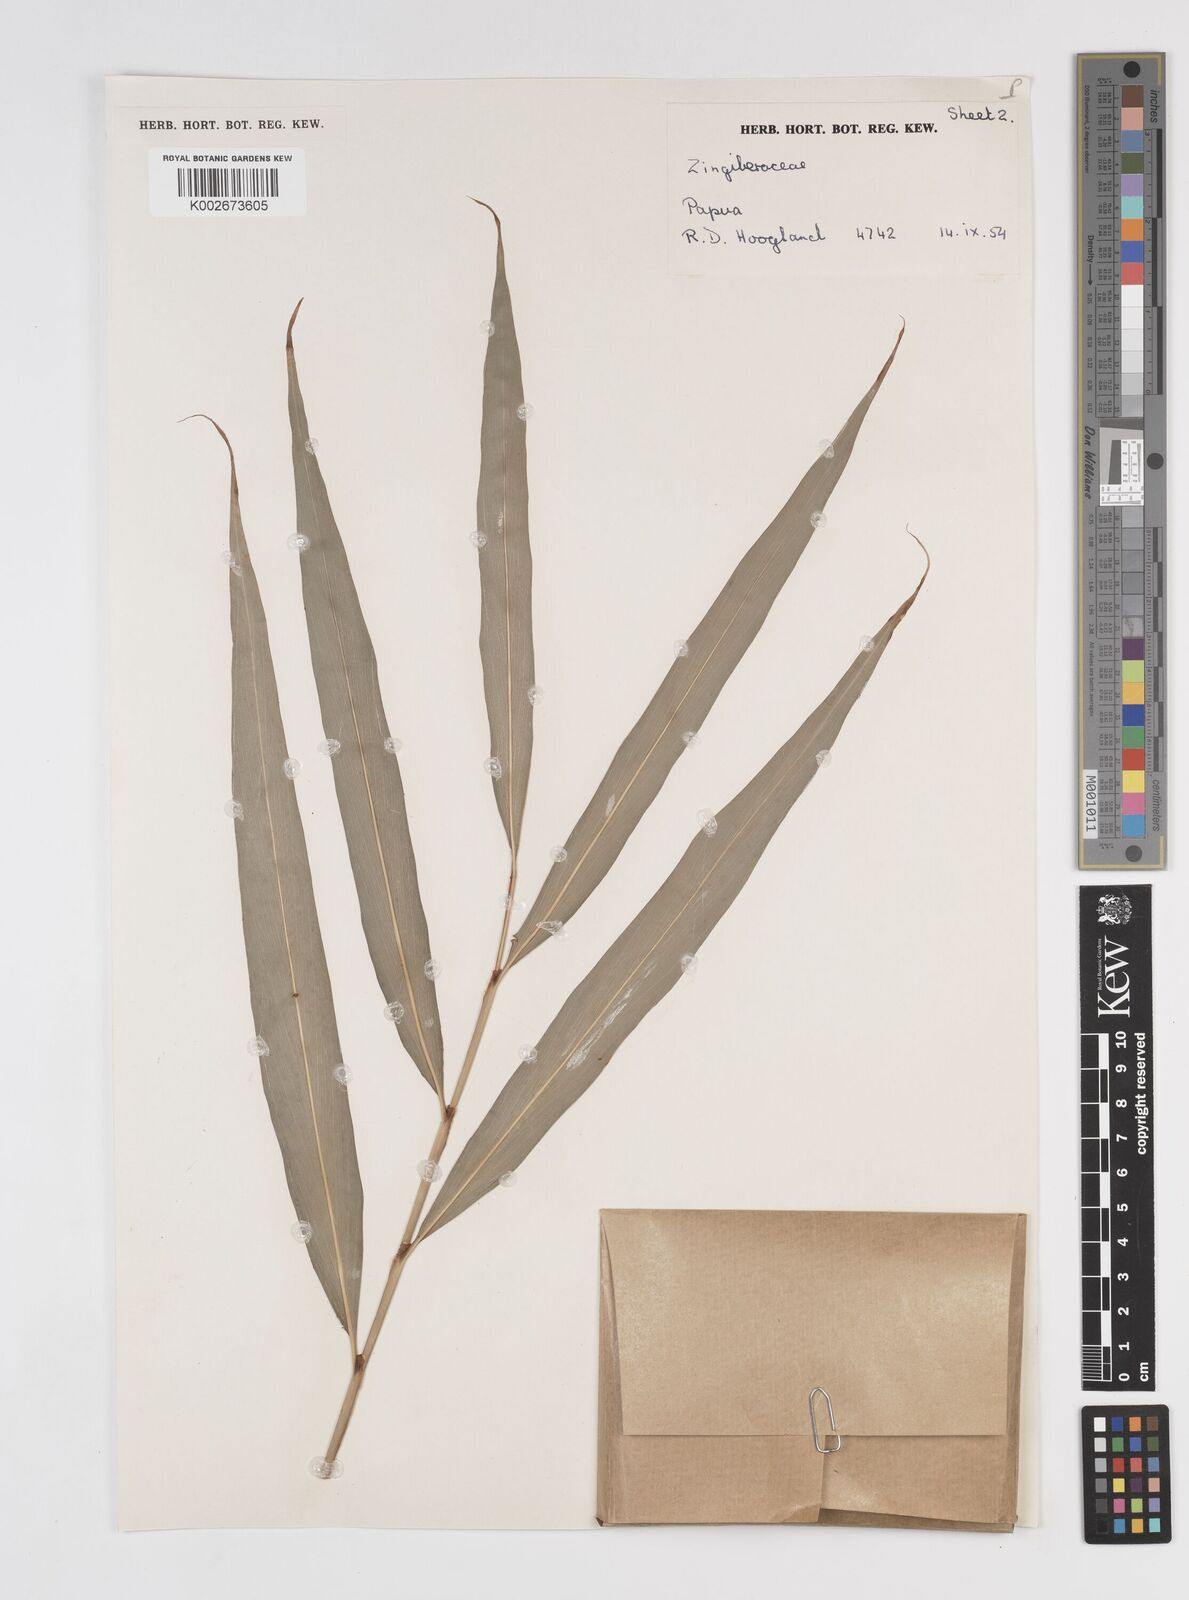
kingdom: Plantae
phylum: Tracheophyta
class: Liliopsida
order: Zingiberales
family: Zingiberaceae
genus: Amomum
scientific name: Amomum
